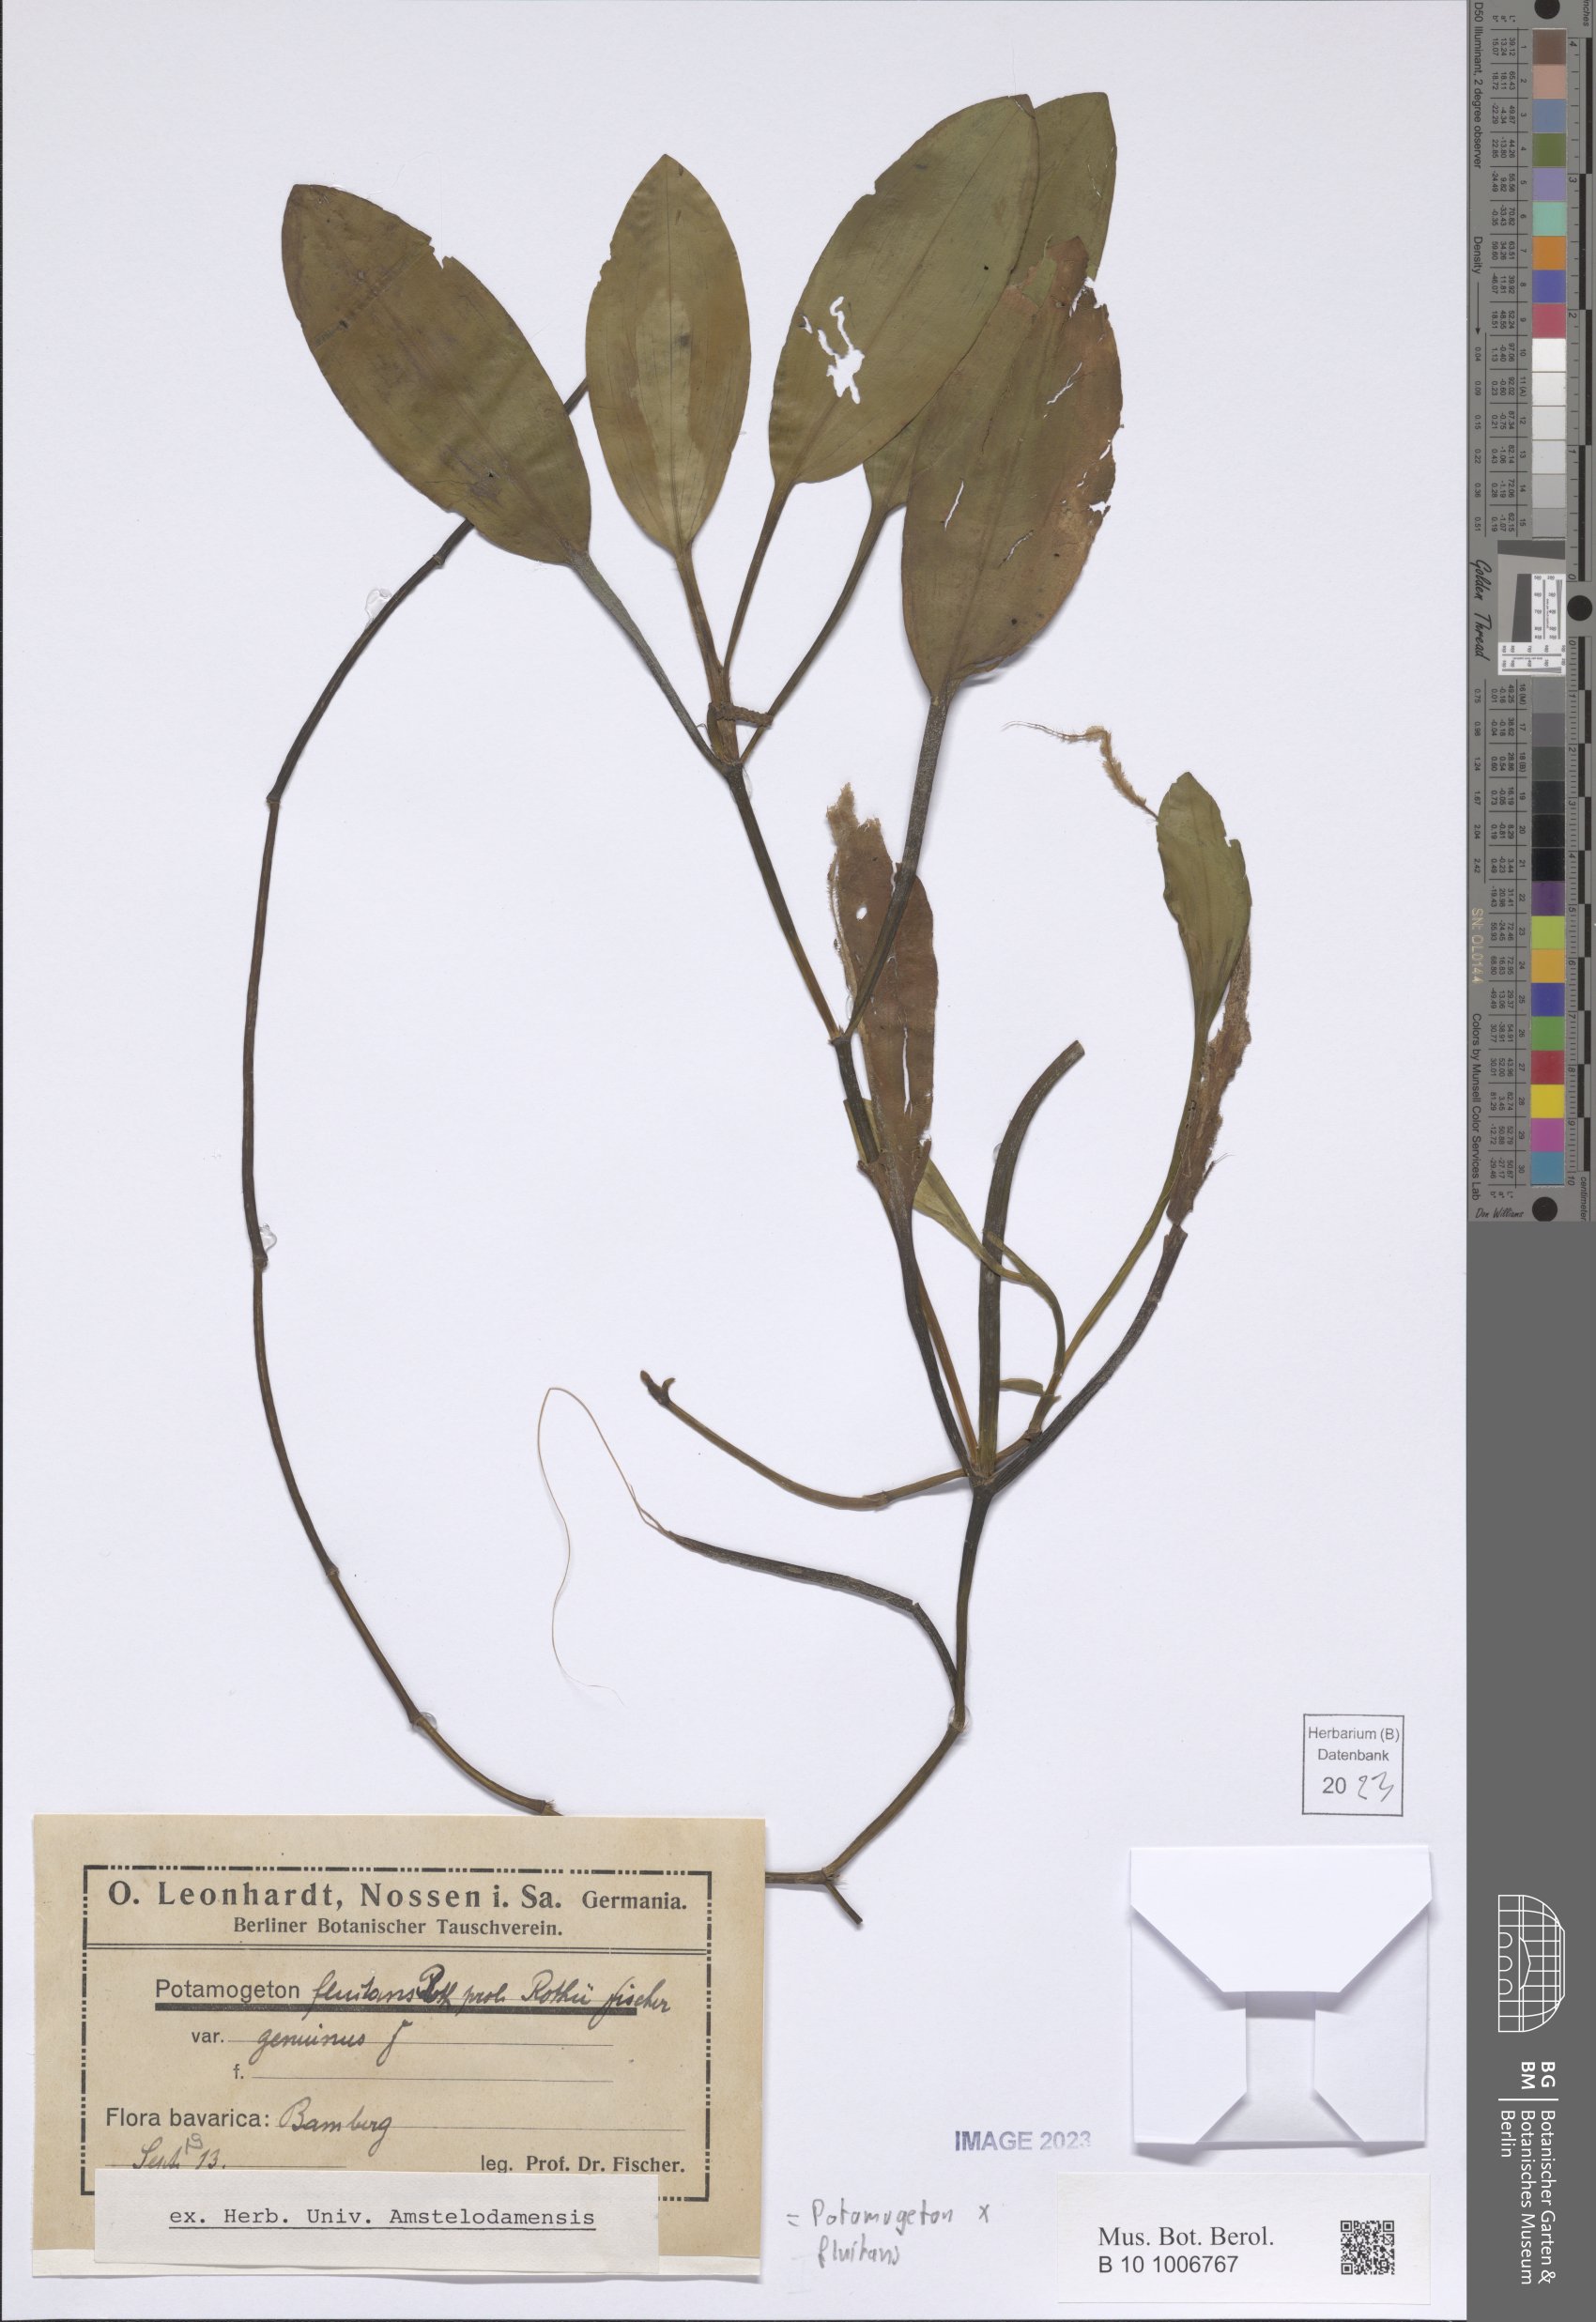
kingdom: Plantae
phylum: Tracheophyta
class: Liliopsida
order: Alismatales
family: Potamogetonaceae
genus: Potamogeton
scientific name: Potamogeton fluitans
